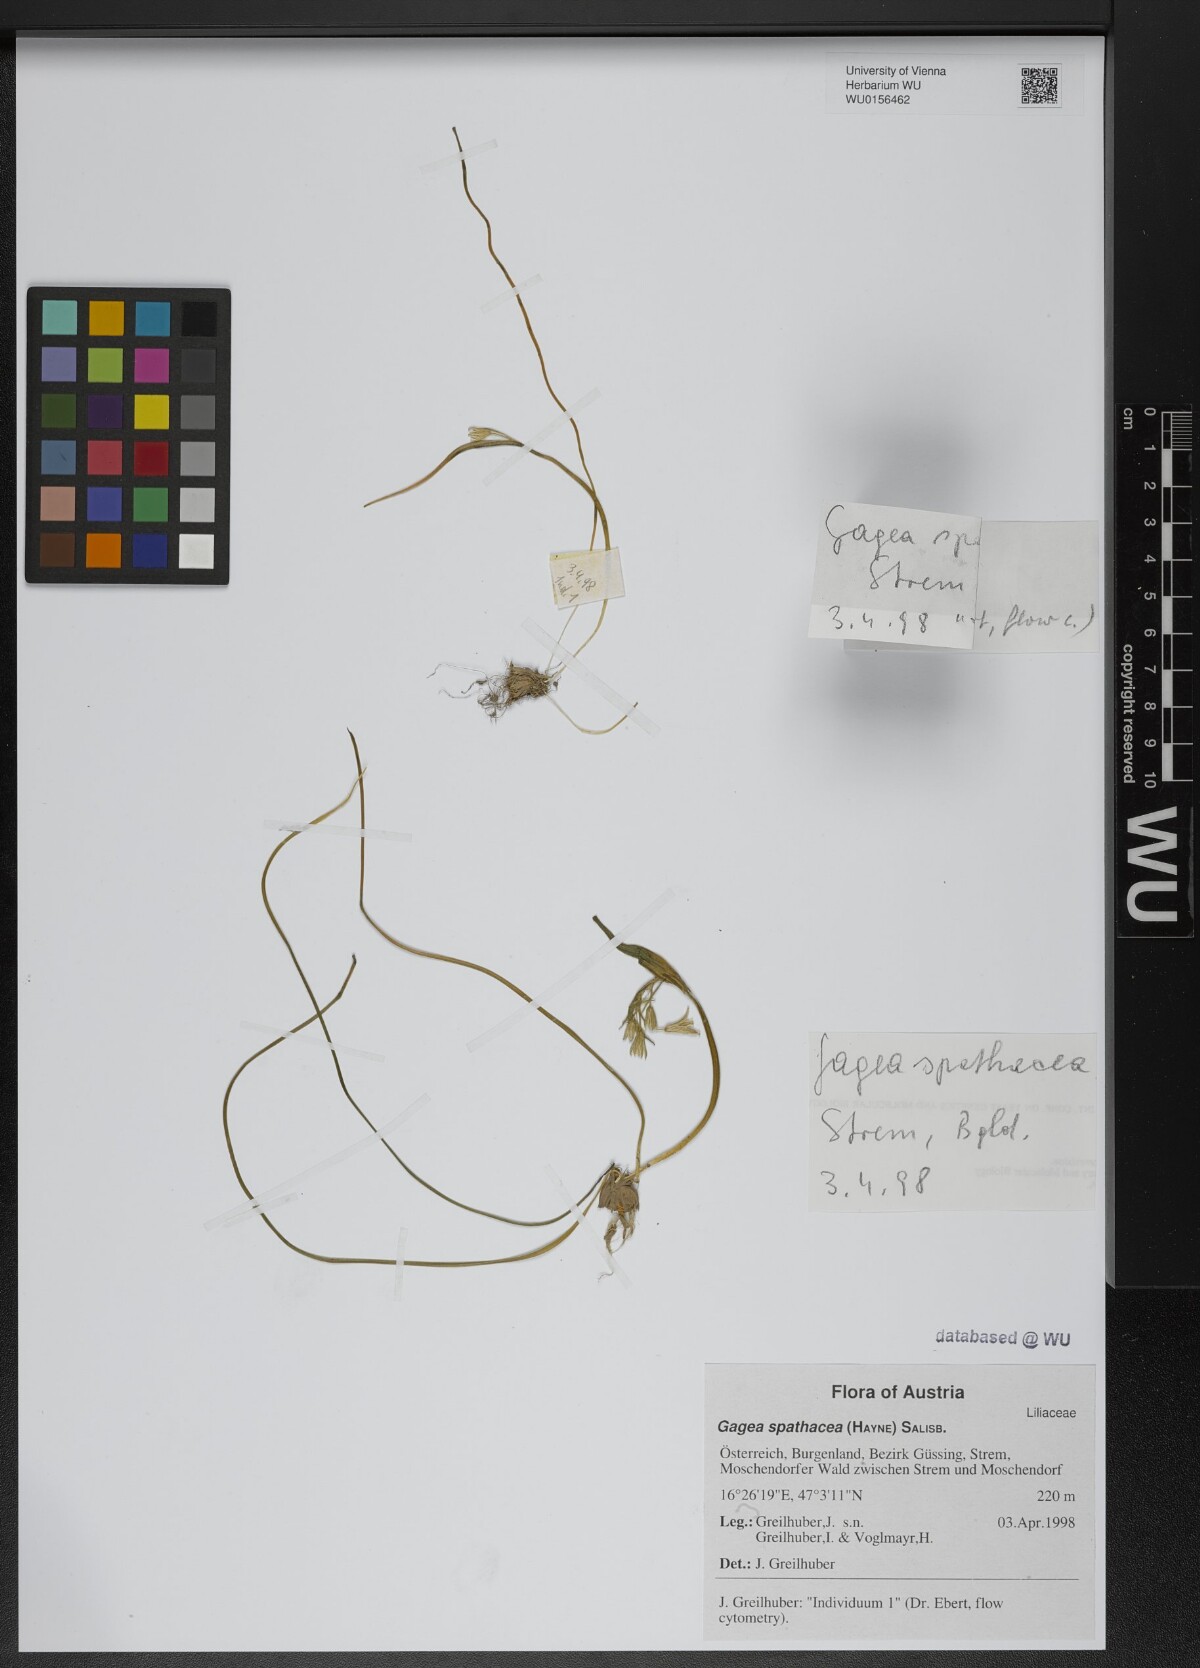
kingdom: Plantae
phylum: Tracheophyta
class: Liliopsida
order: Liliales
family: Liliaceae
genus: Gagea
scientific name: Gagea spathacea
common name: Belgian gagea
